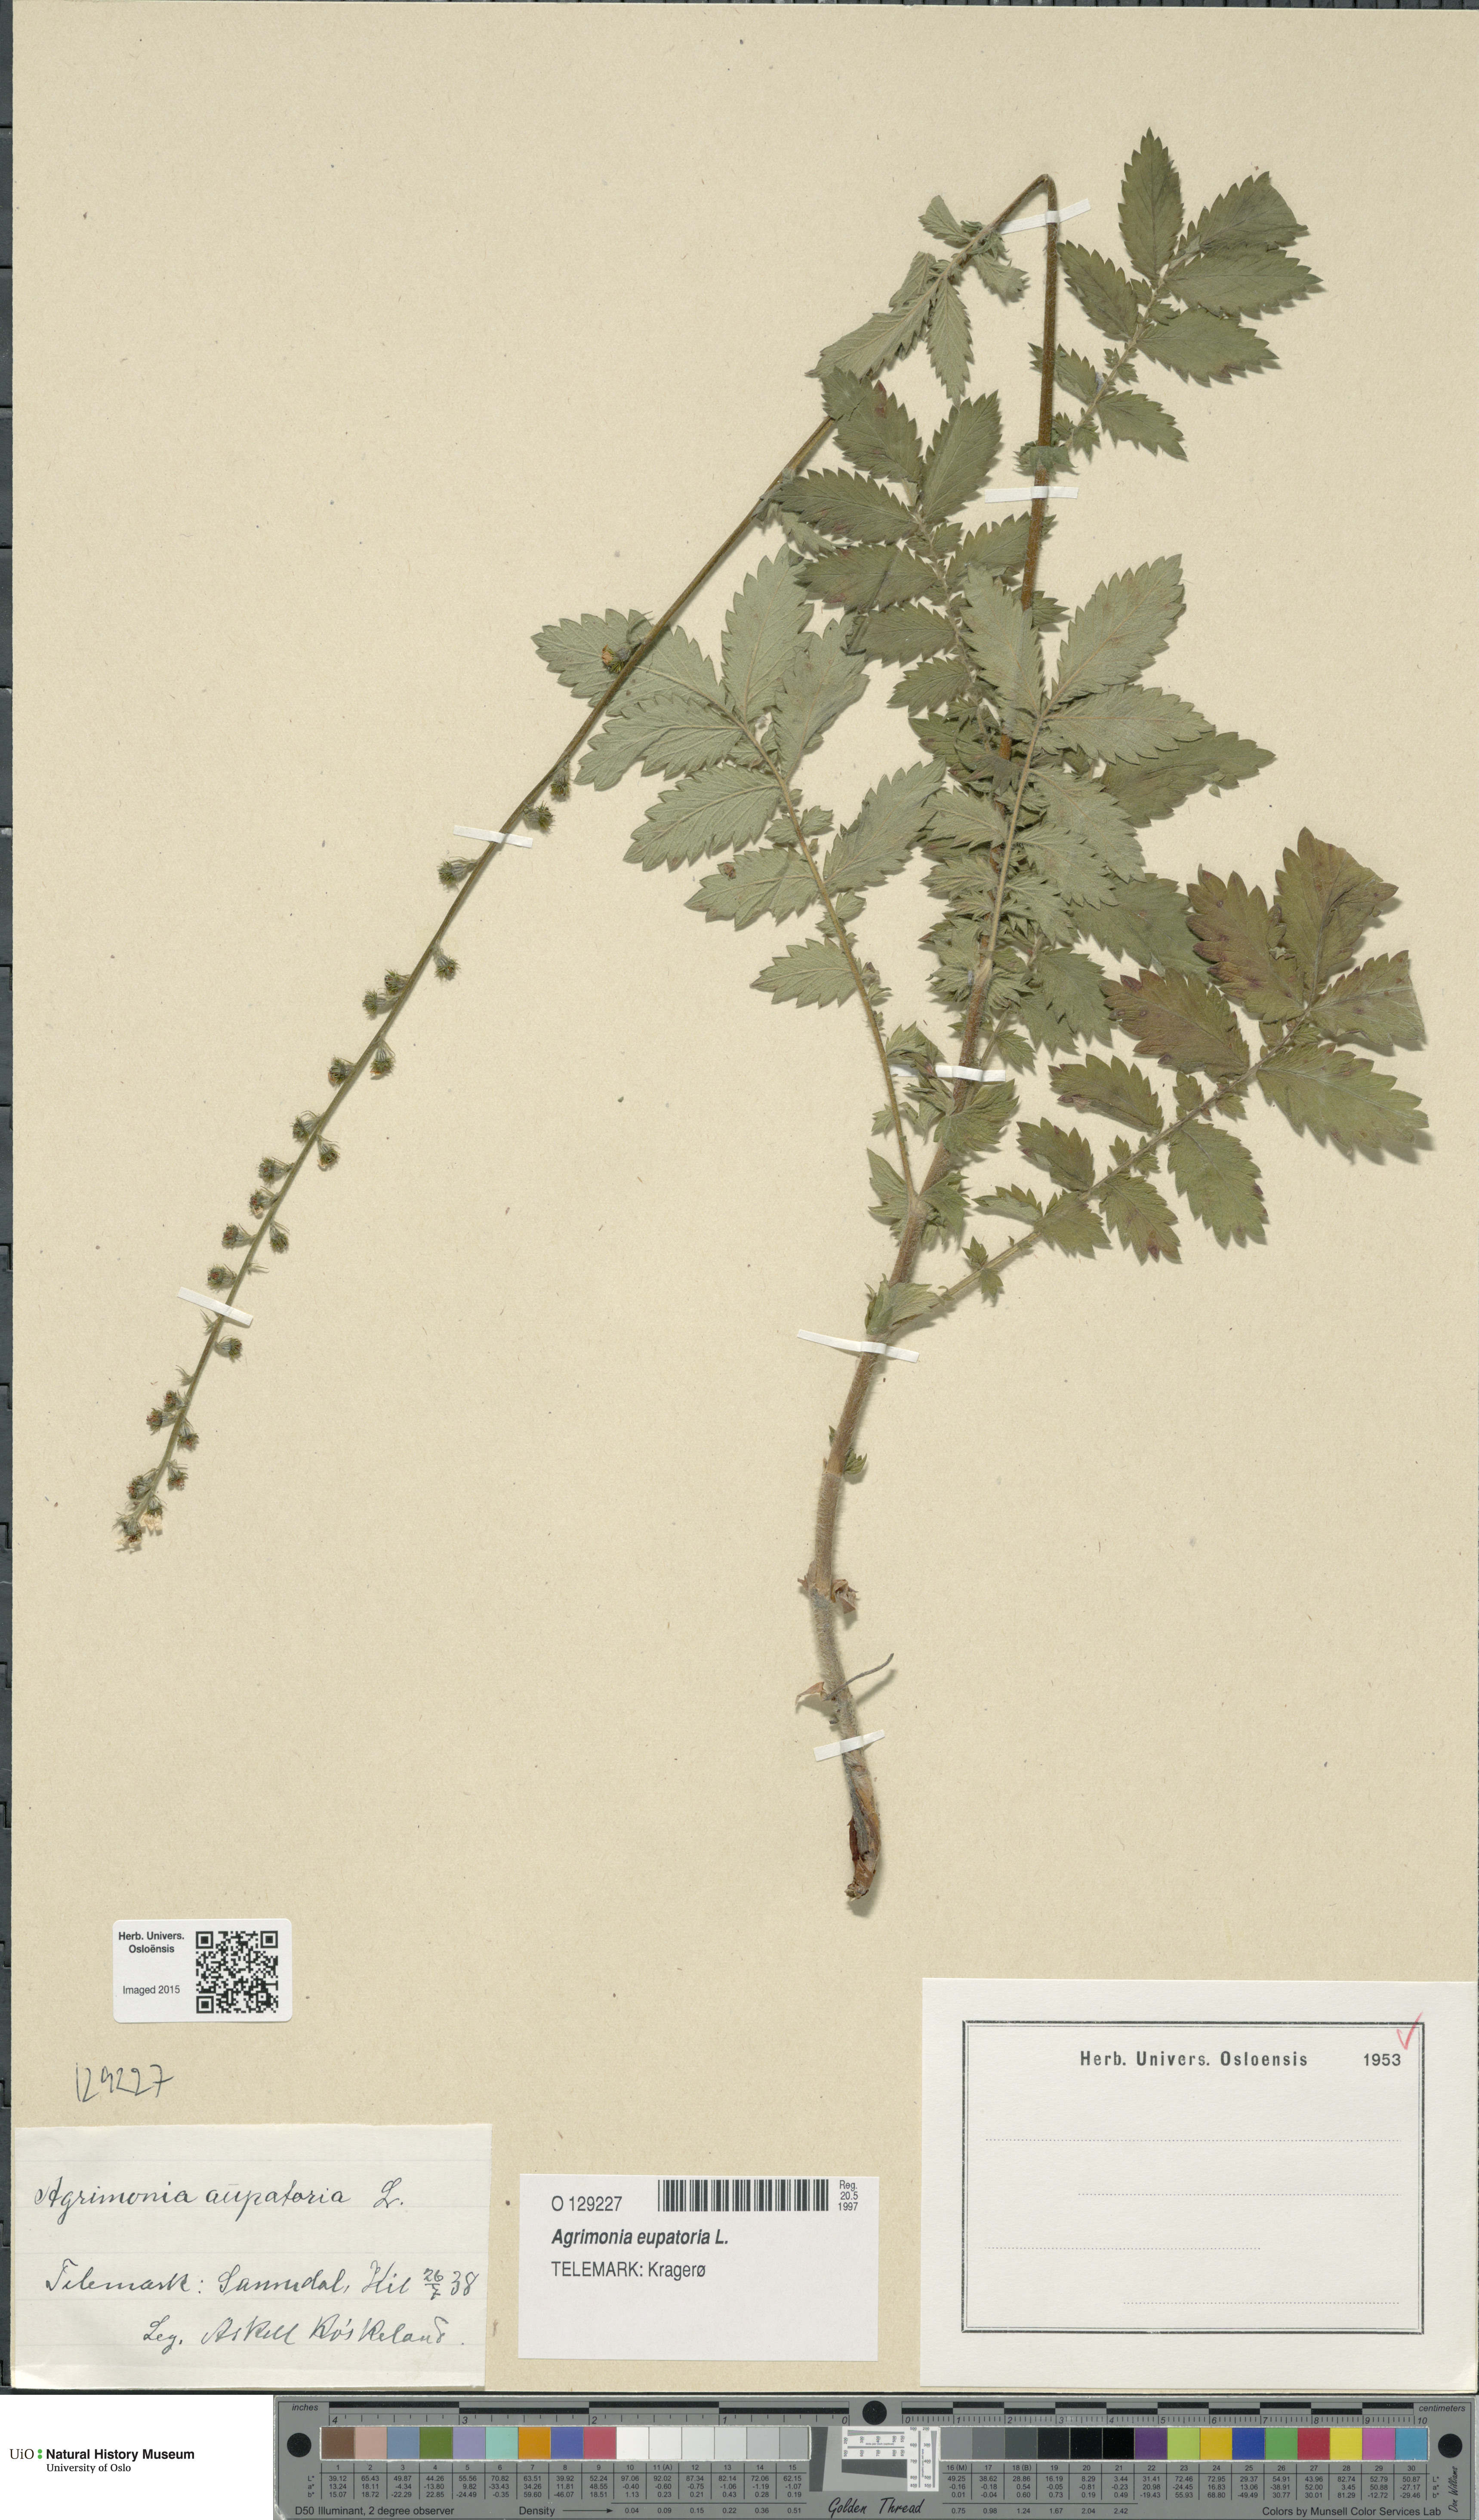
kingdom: Plantae
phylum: Tracheophyta
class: Magnoliopsida
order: Rosales
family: Rosaceae
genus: Agrimonia
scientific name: Agrimonia eupatoria
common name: Agrimony
